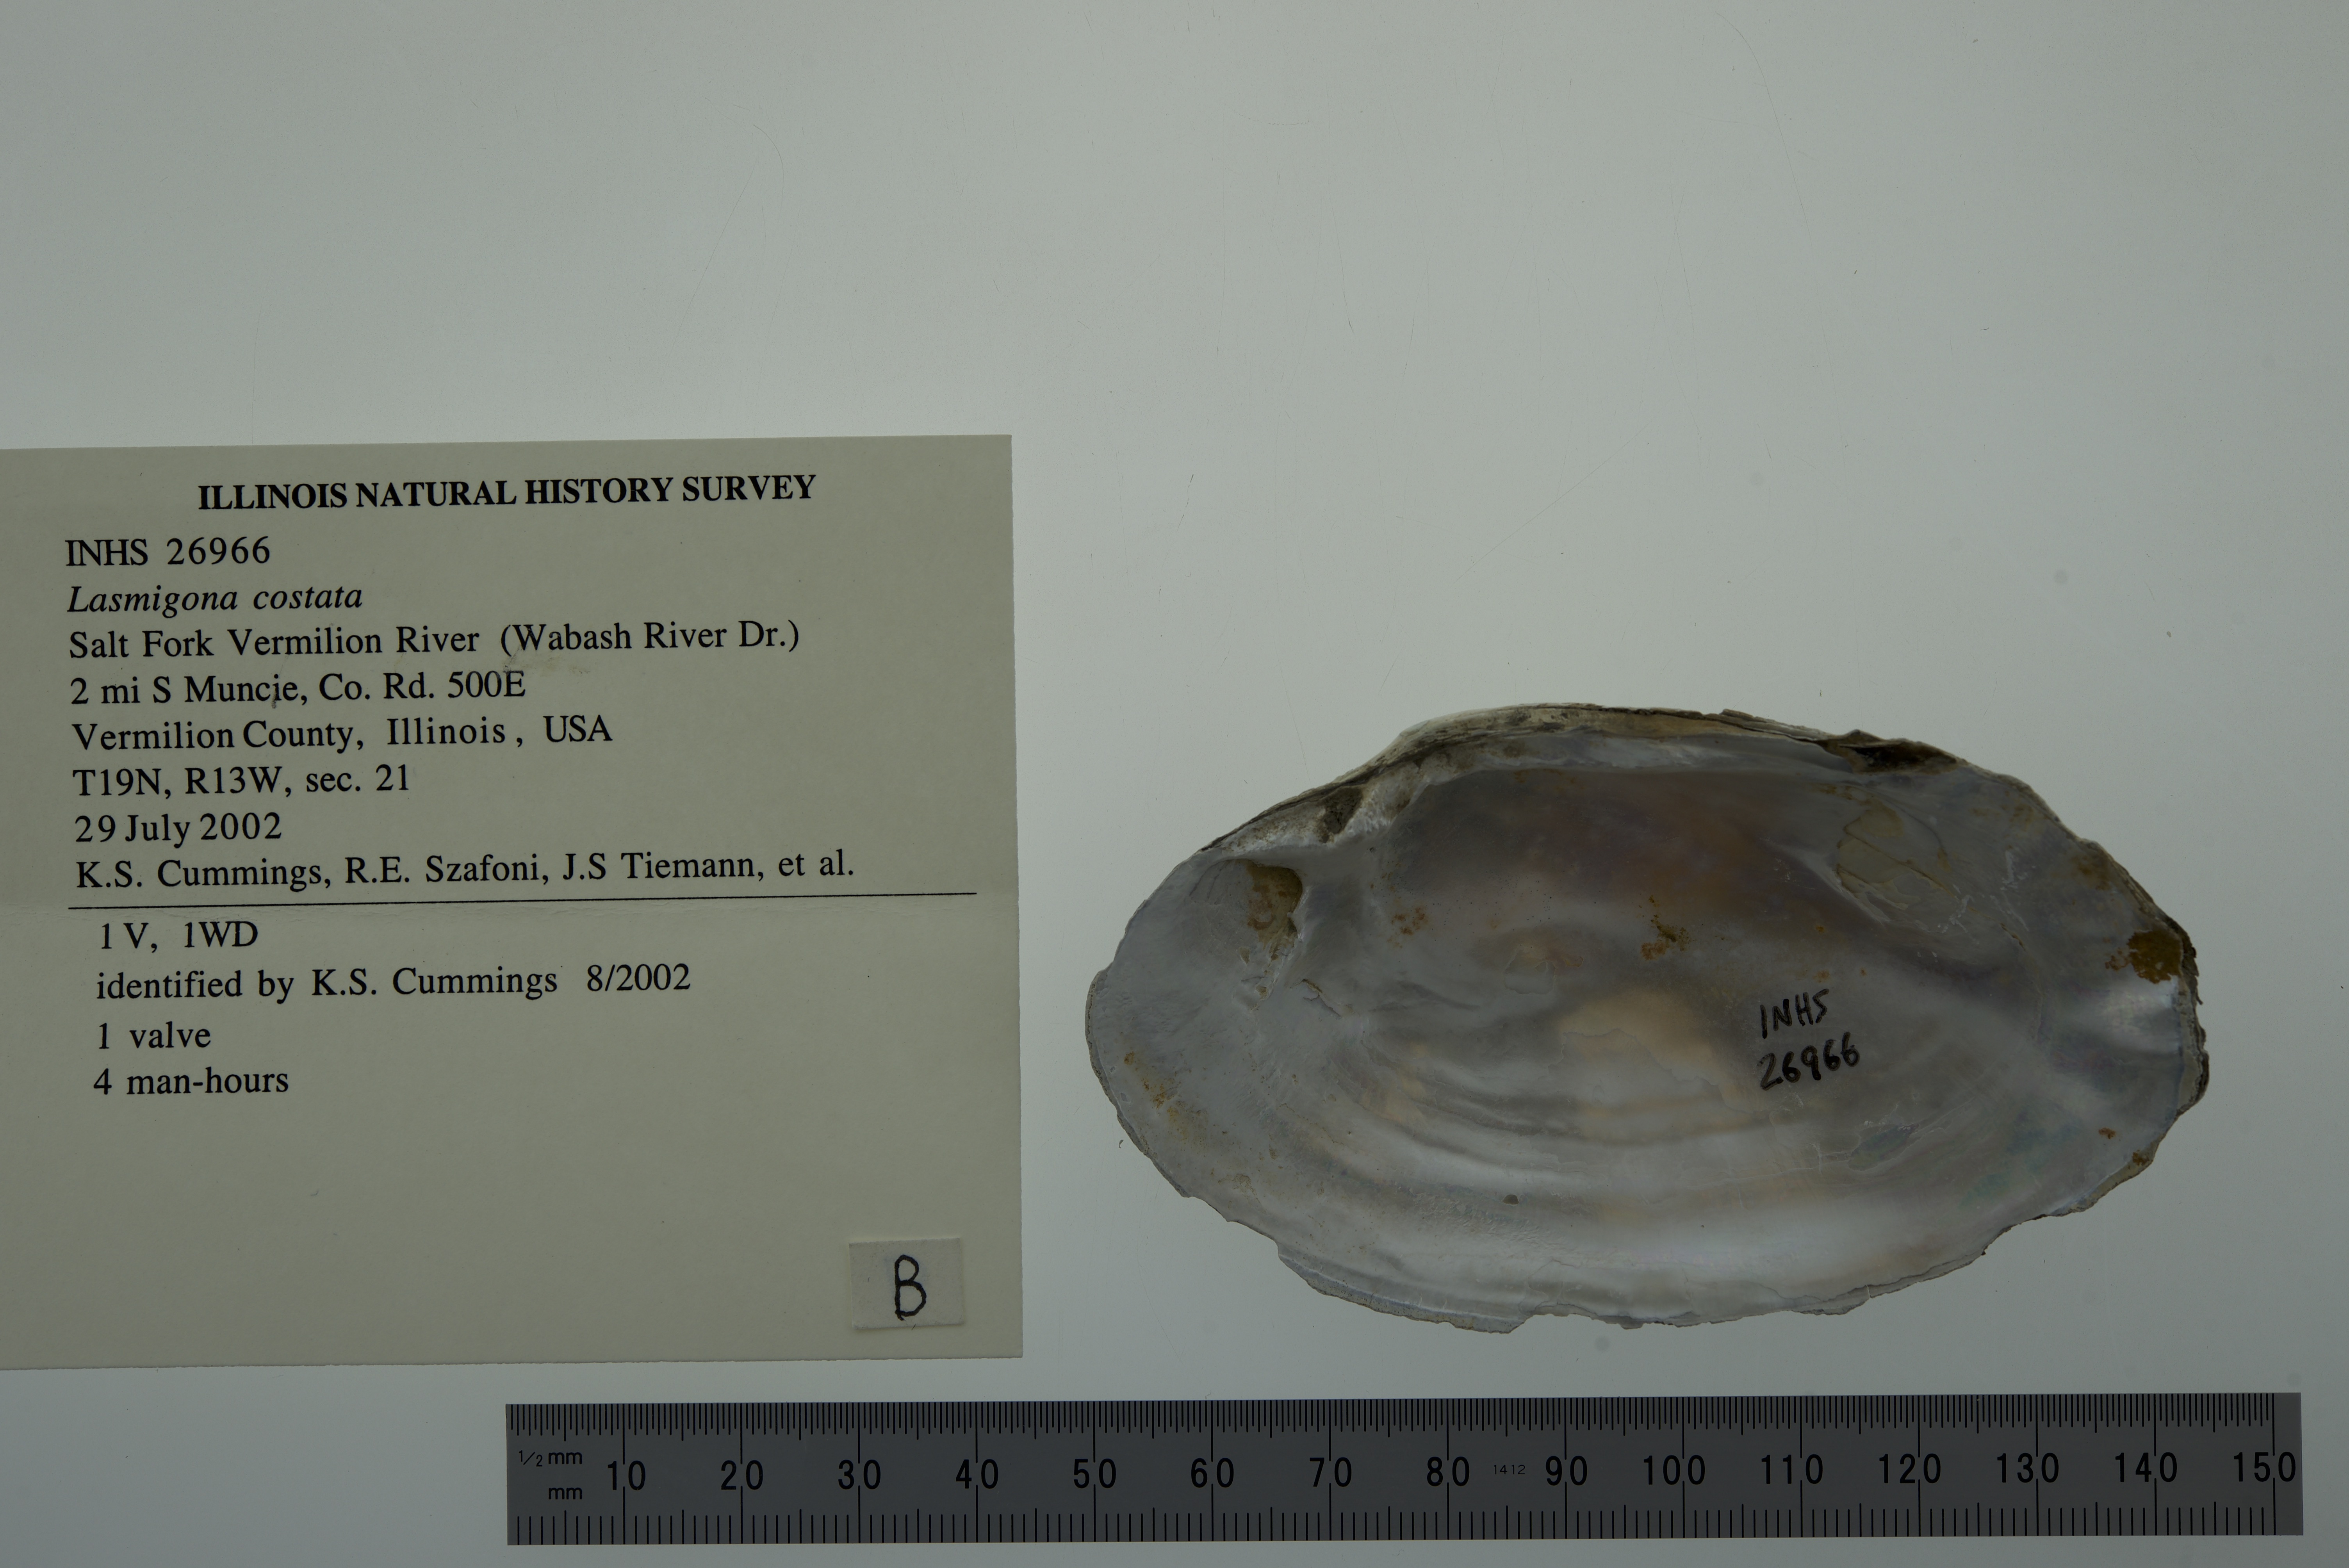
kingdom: Animalia
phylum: Mollusca
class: Bivalvia
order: Unionida
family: Unionidae
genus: Lasmigona
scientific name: Lasmigona costata
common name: Flutedshell
